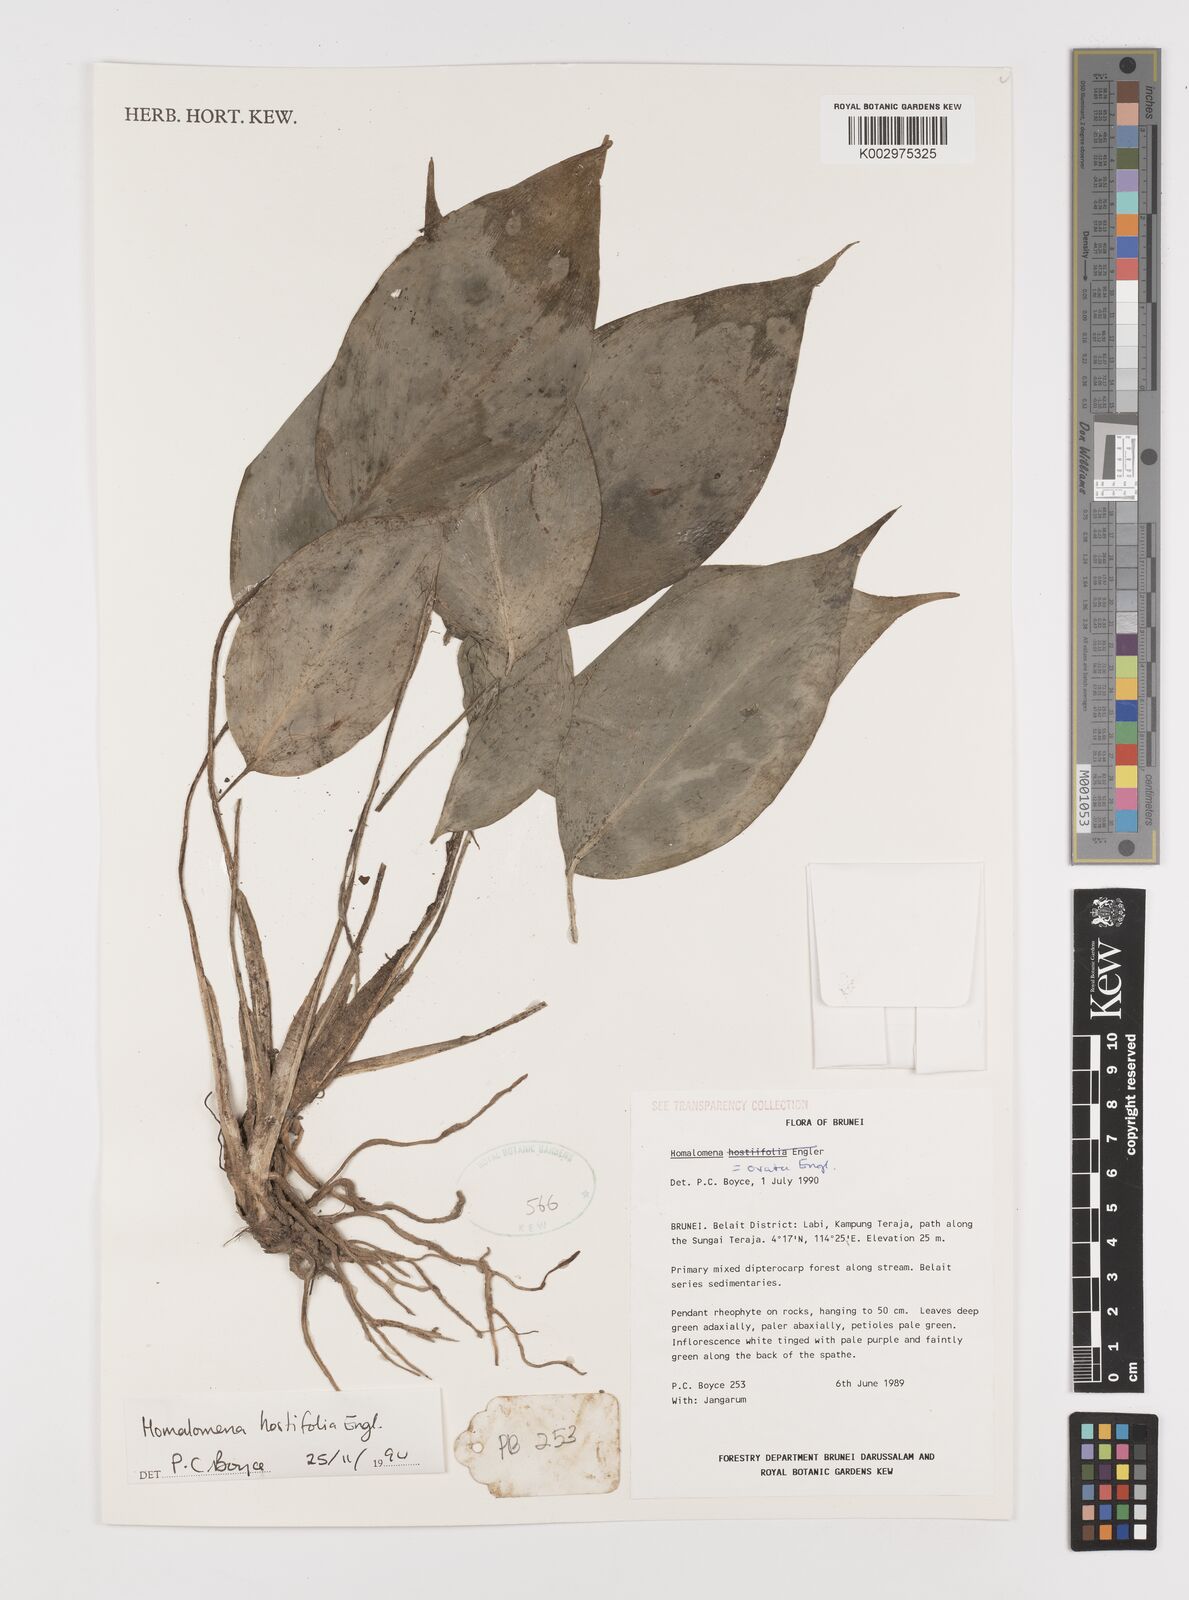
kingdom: Plantae
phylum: Tracheophyta
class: Liliopsida
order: Alismatales
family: Araceae
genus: Homalomena
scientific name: Homalomena ovata
